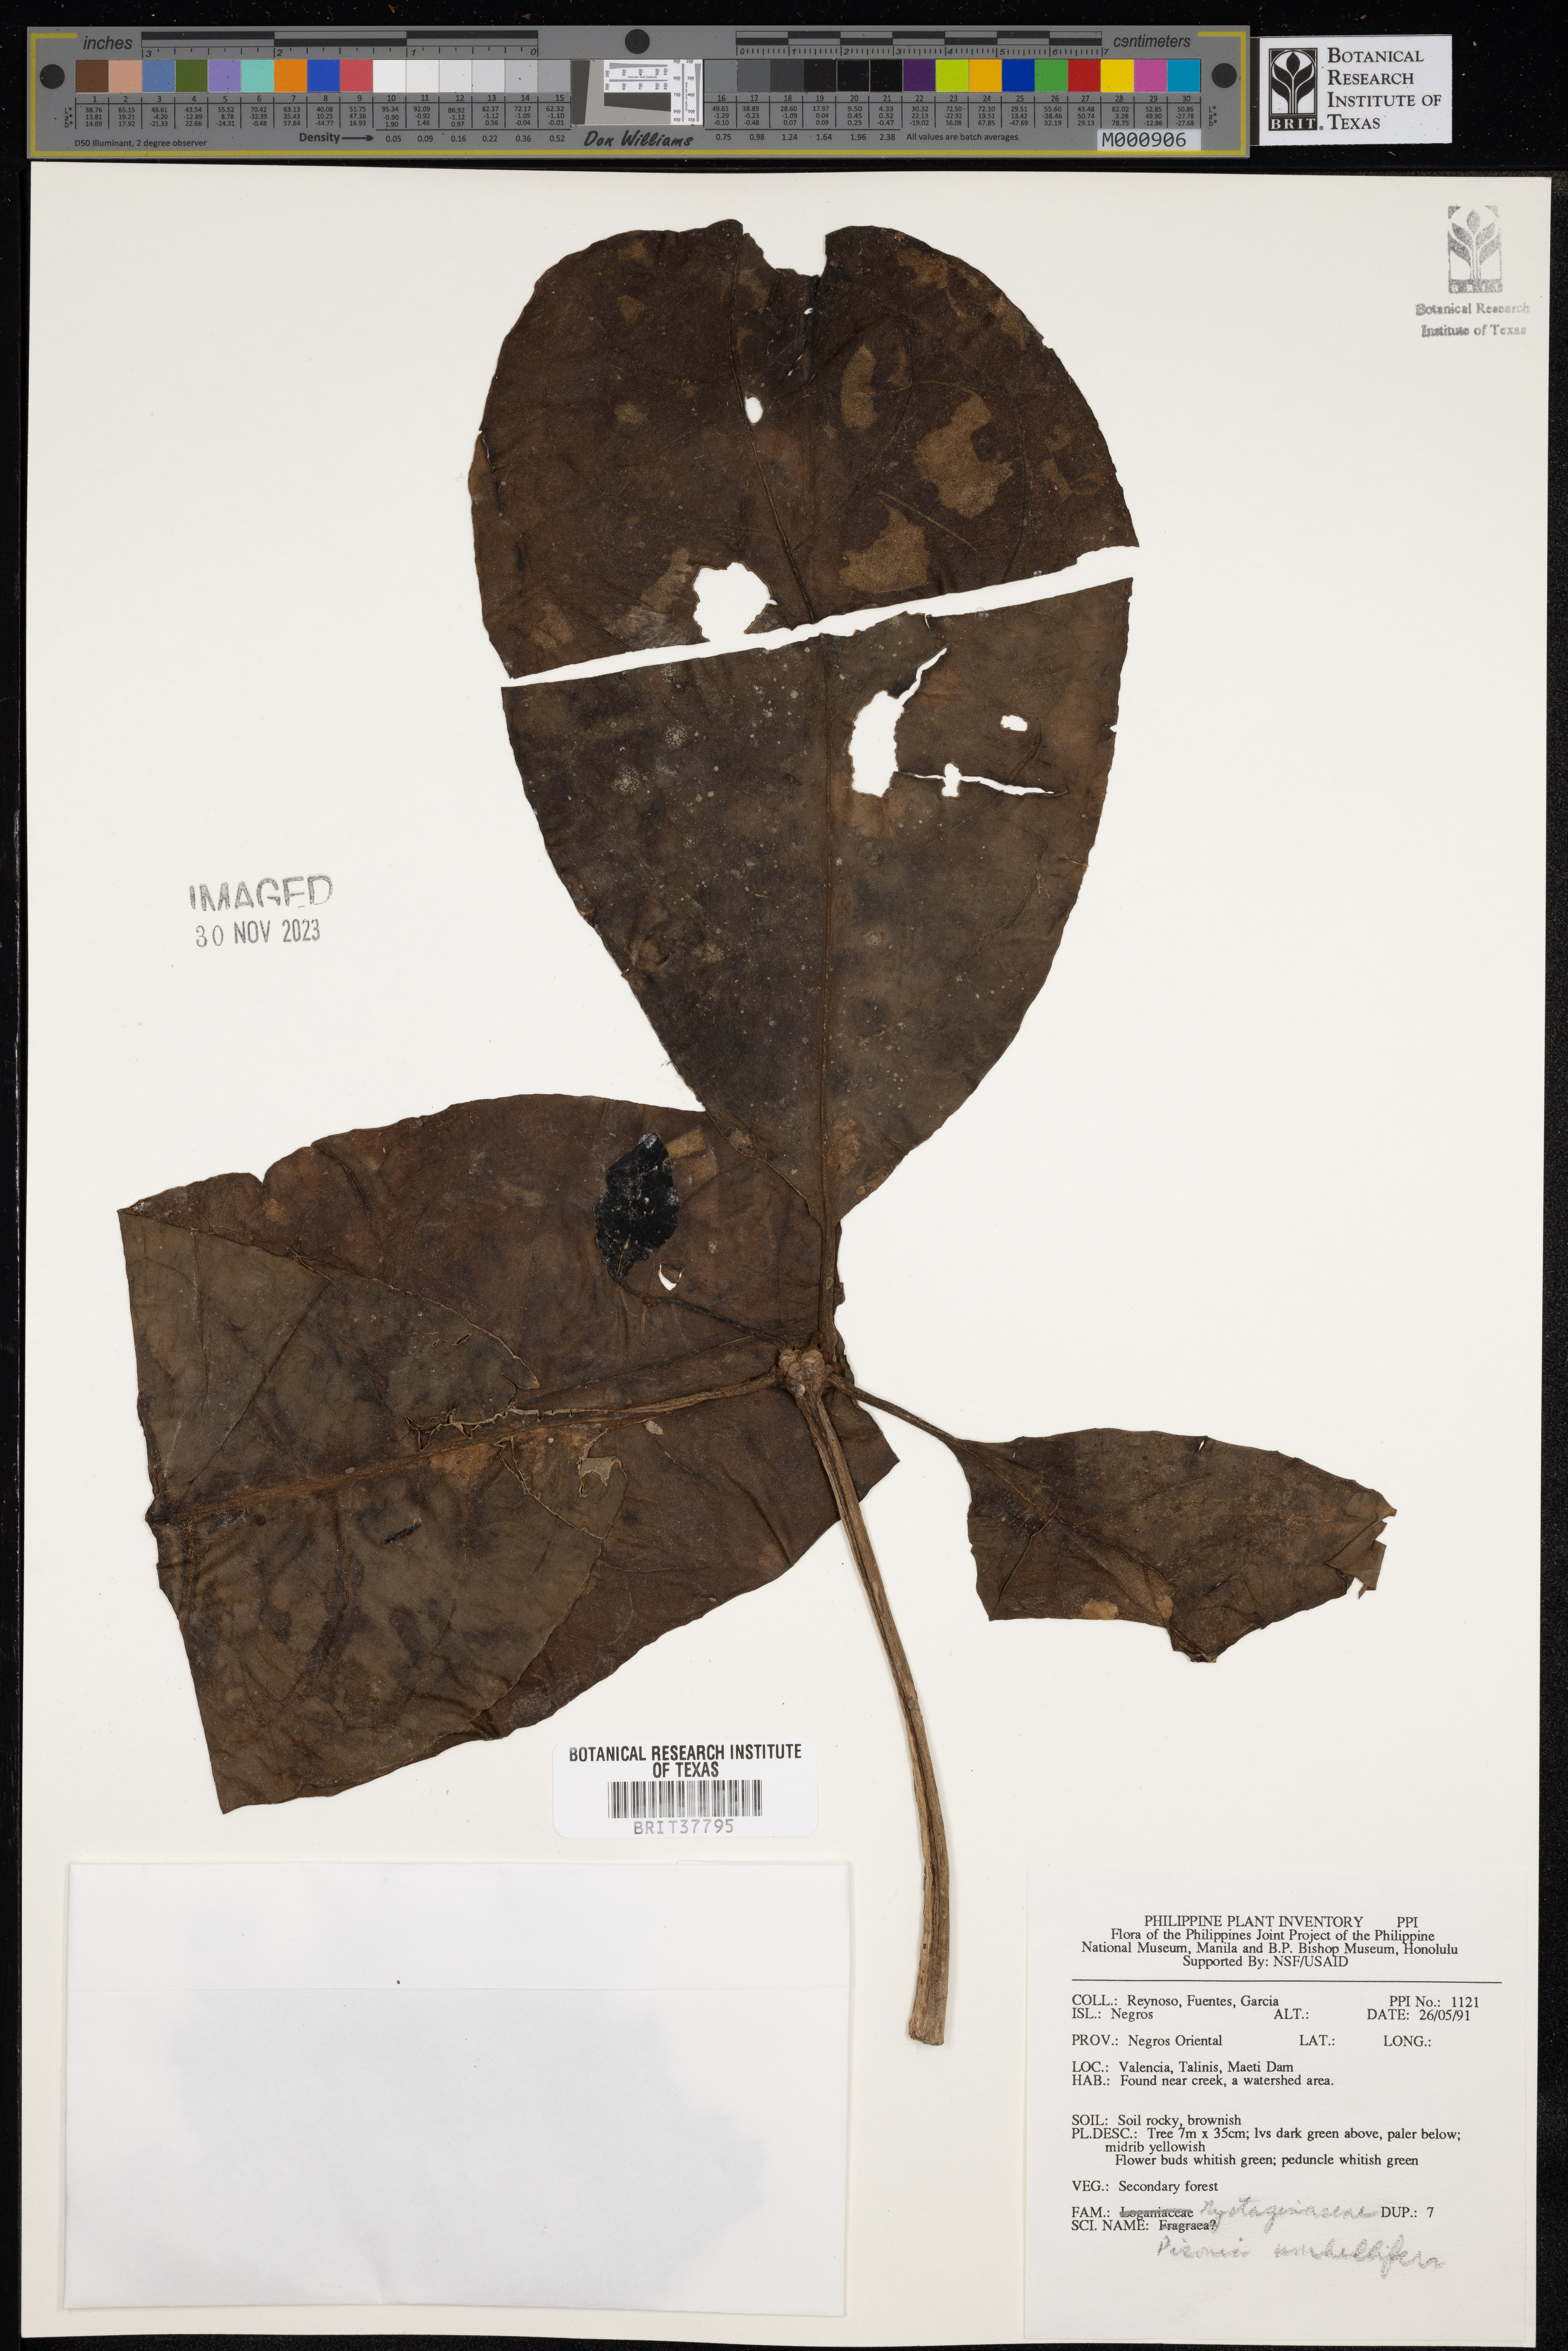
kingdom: Plantae
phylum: Tracheophyta
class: Magnoliopsida
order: Caryophyllales
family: Nyctaginaceae
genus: Ceodes
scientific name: Ceodes umbellifera
